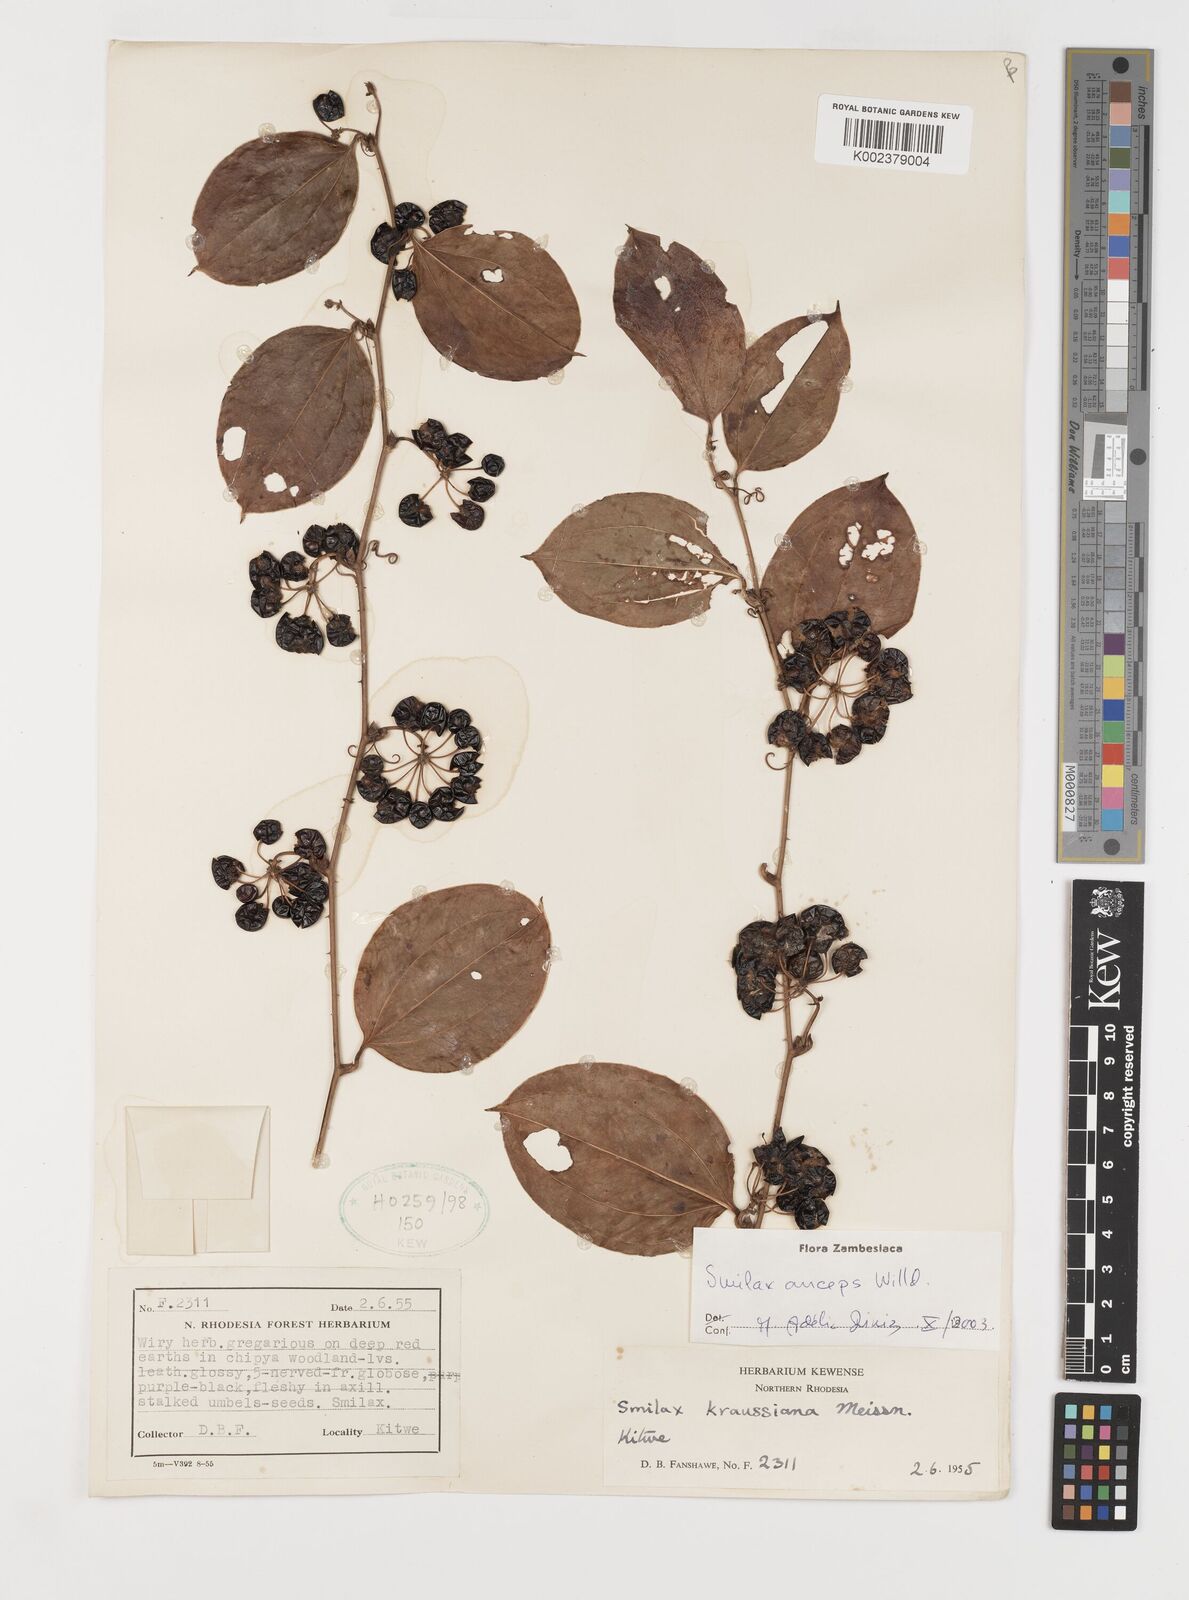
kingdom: Plantae
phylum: Tracheophyta
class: Liliopsida
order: Liliales
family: Smilacaceae
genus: Smilax
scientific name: Smilax anceps
